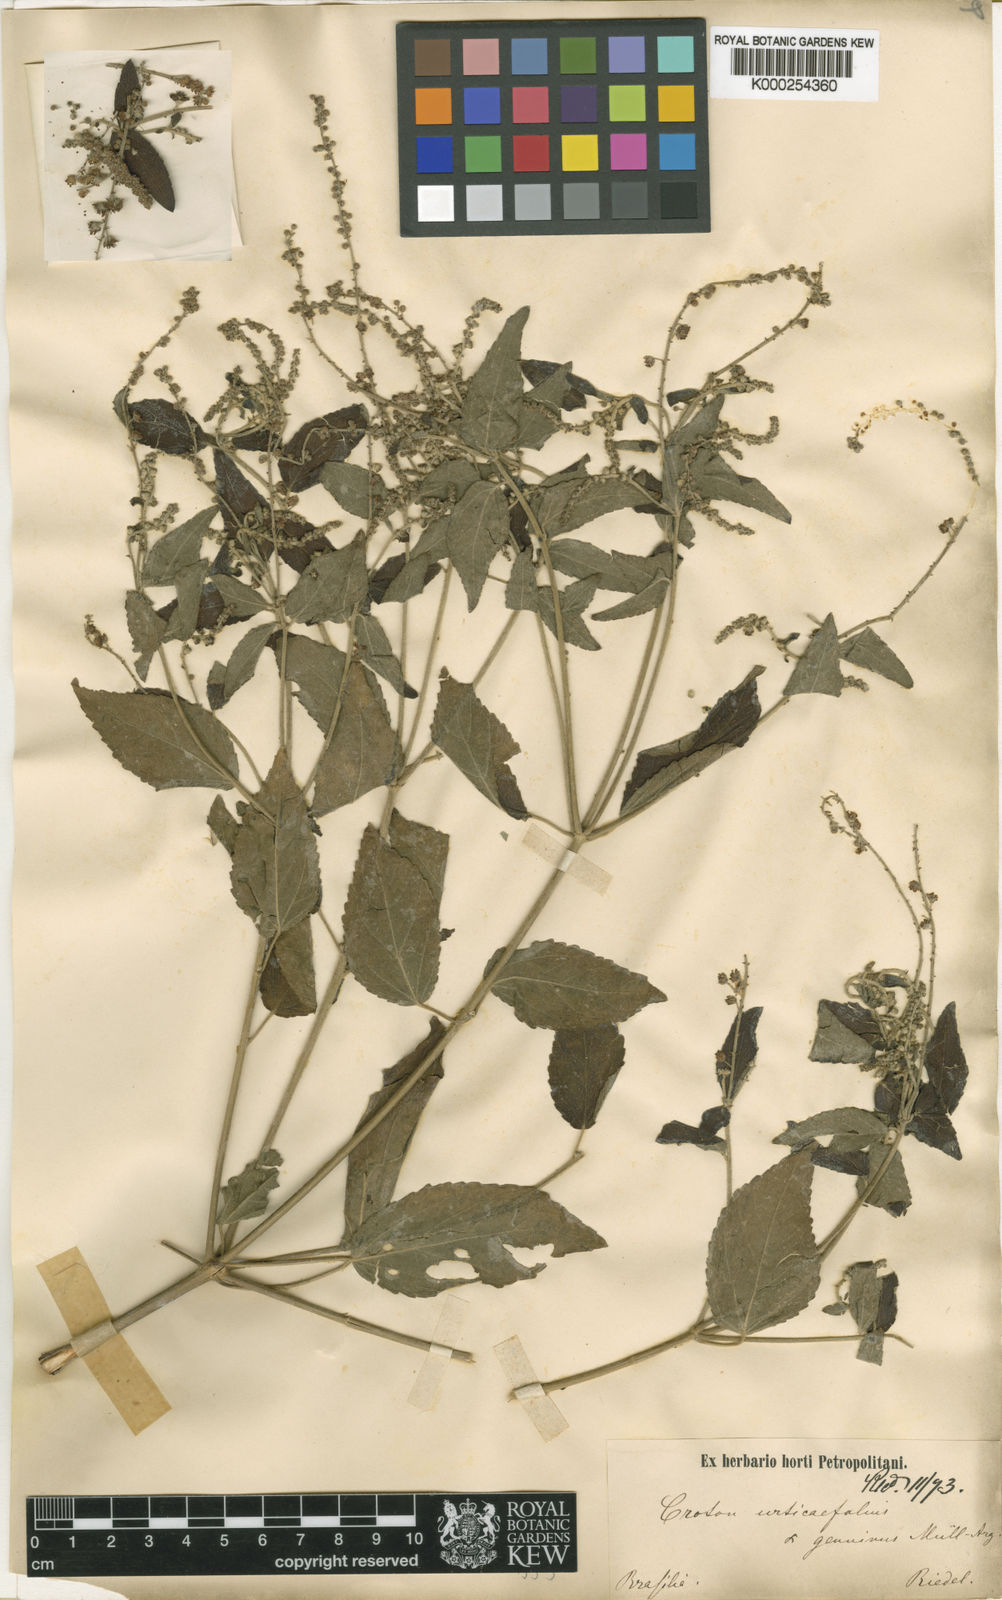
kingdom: Plantae
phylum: Tracheophyta
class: Magnoliopsida
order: Malpighiales
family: Euphorbiaceae
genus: Croton
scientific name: Croton urticifolius
